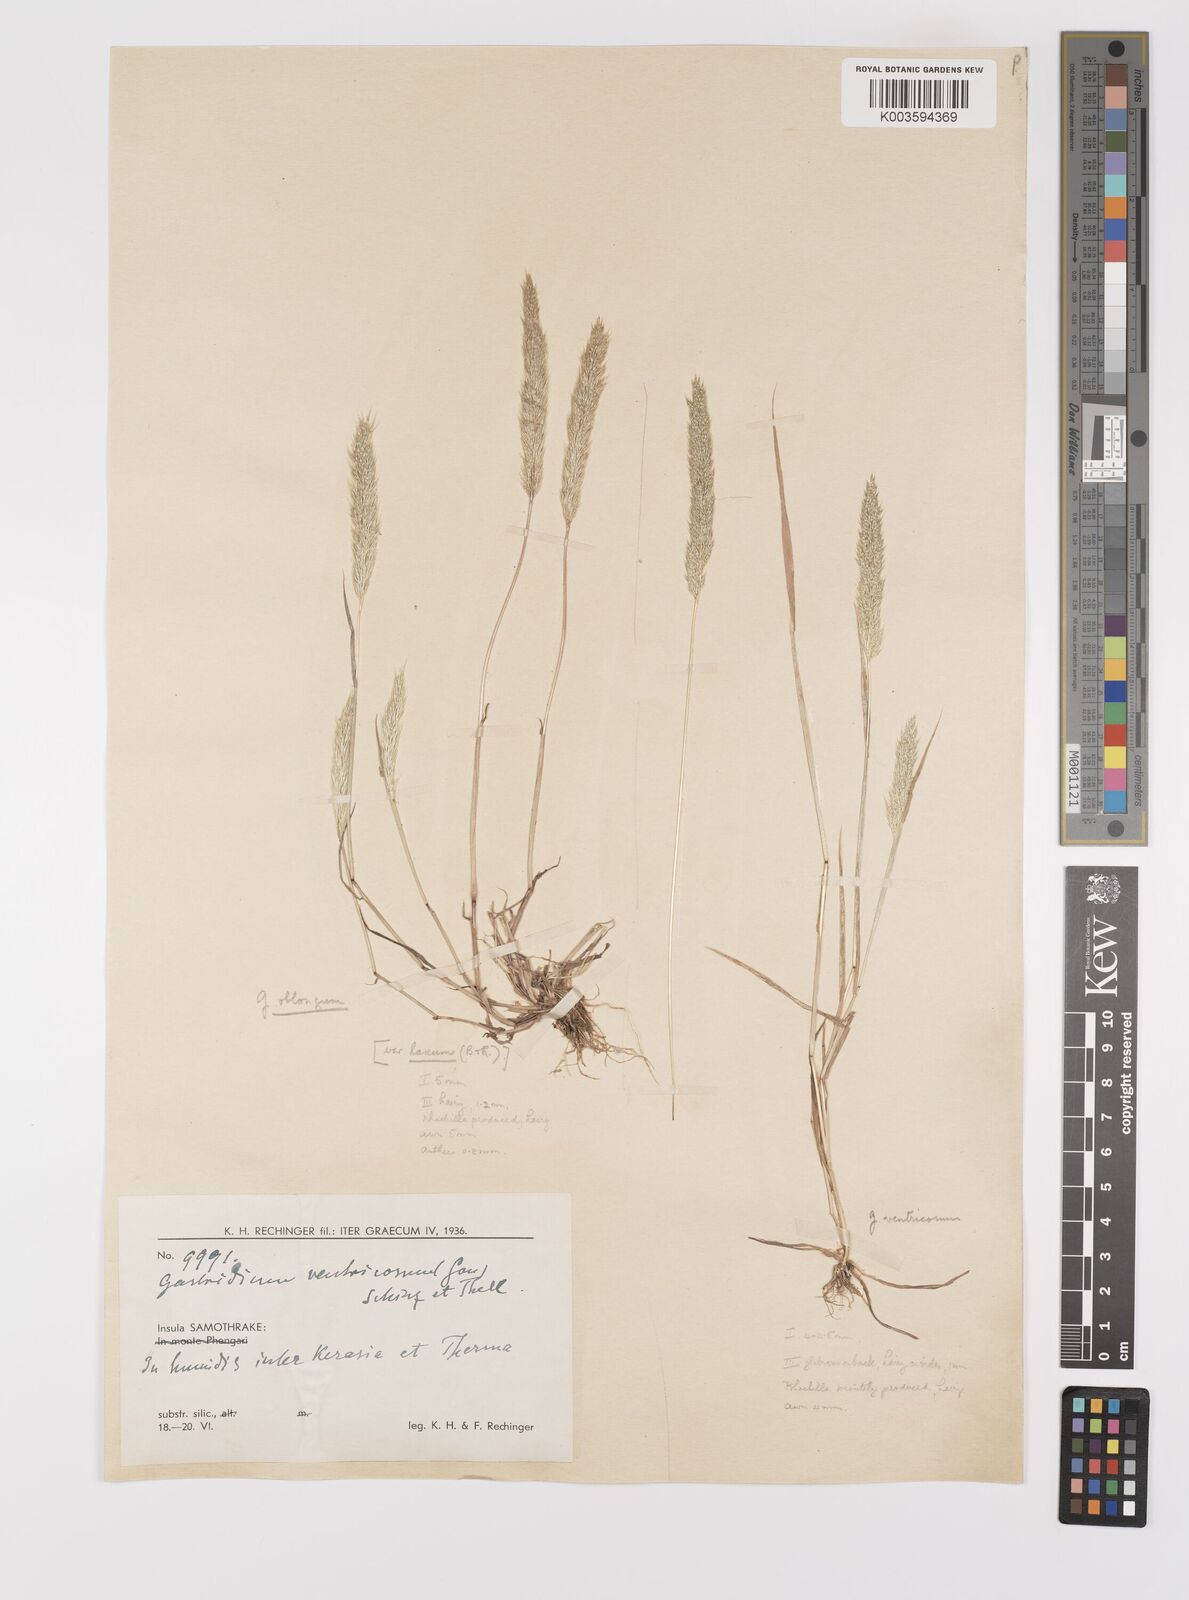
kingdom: Plantae
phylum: Tracheophyta
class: Liliopsida
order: Poales
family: Poaceae
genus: Gastridium
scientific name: Gastridium phleoides
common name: Nit grass
